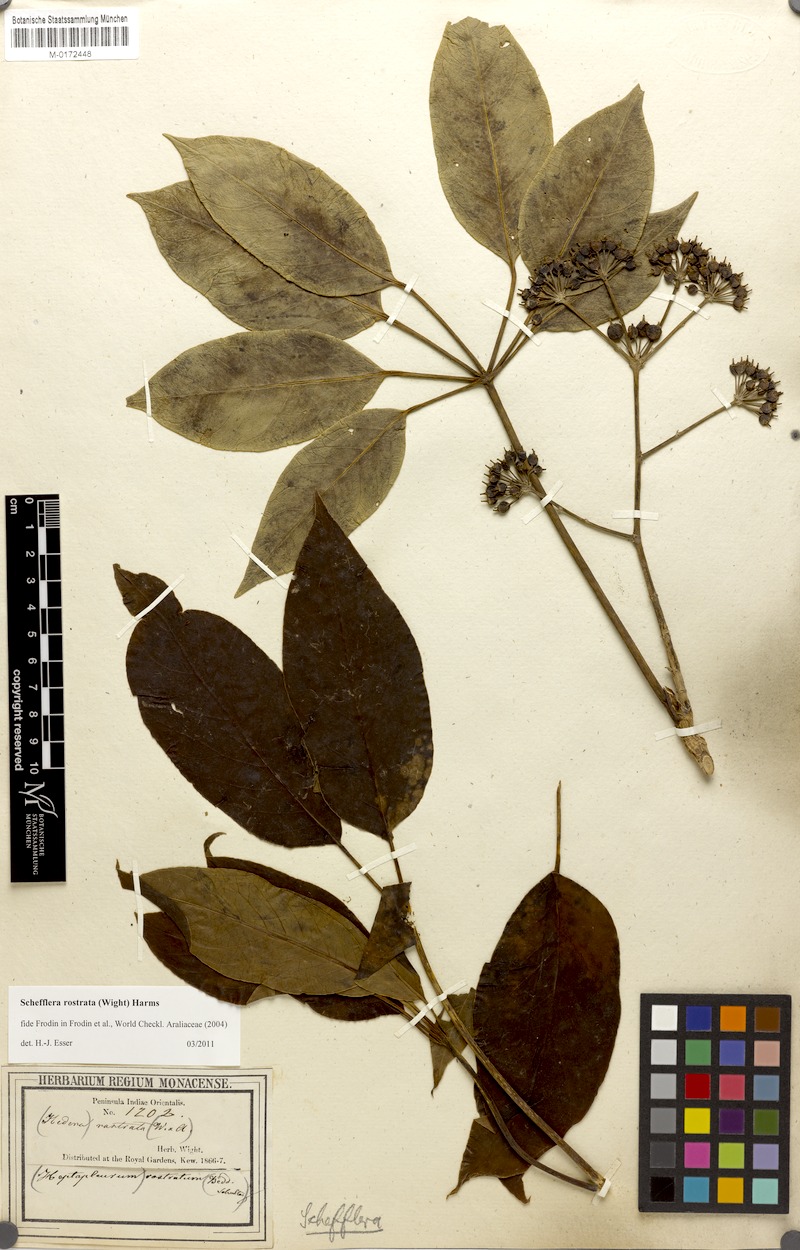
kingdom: Plantae
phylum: Tracheophyta
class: Magnoliopsida
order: Apiales
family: Araliaceae
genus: Heptapleurum
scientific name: Heptapleurum rostratum
